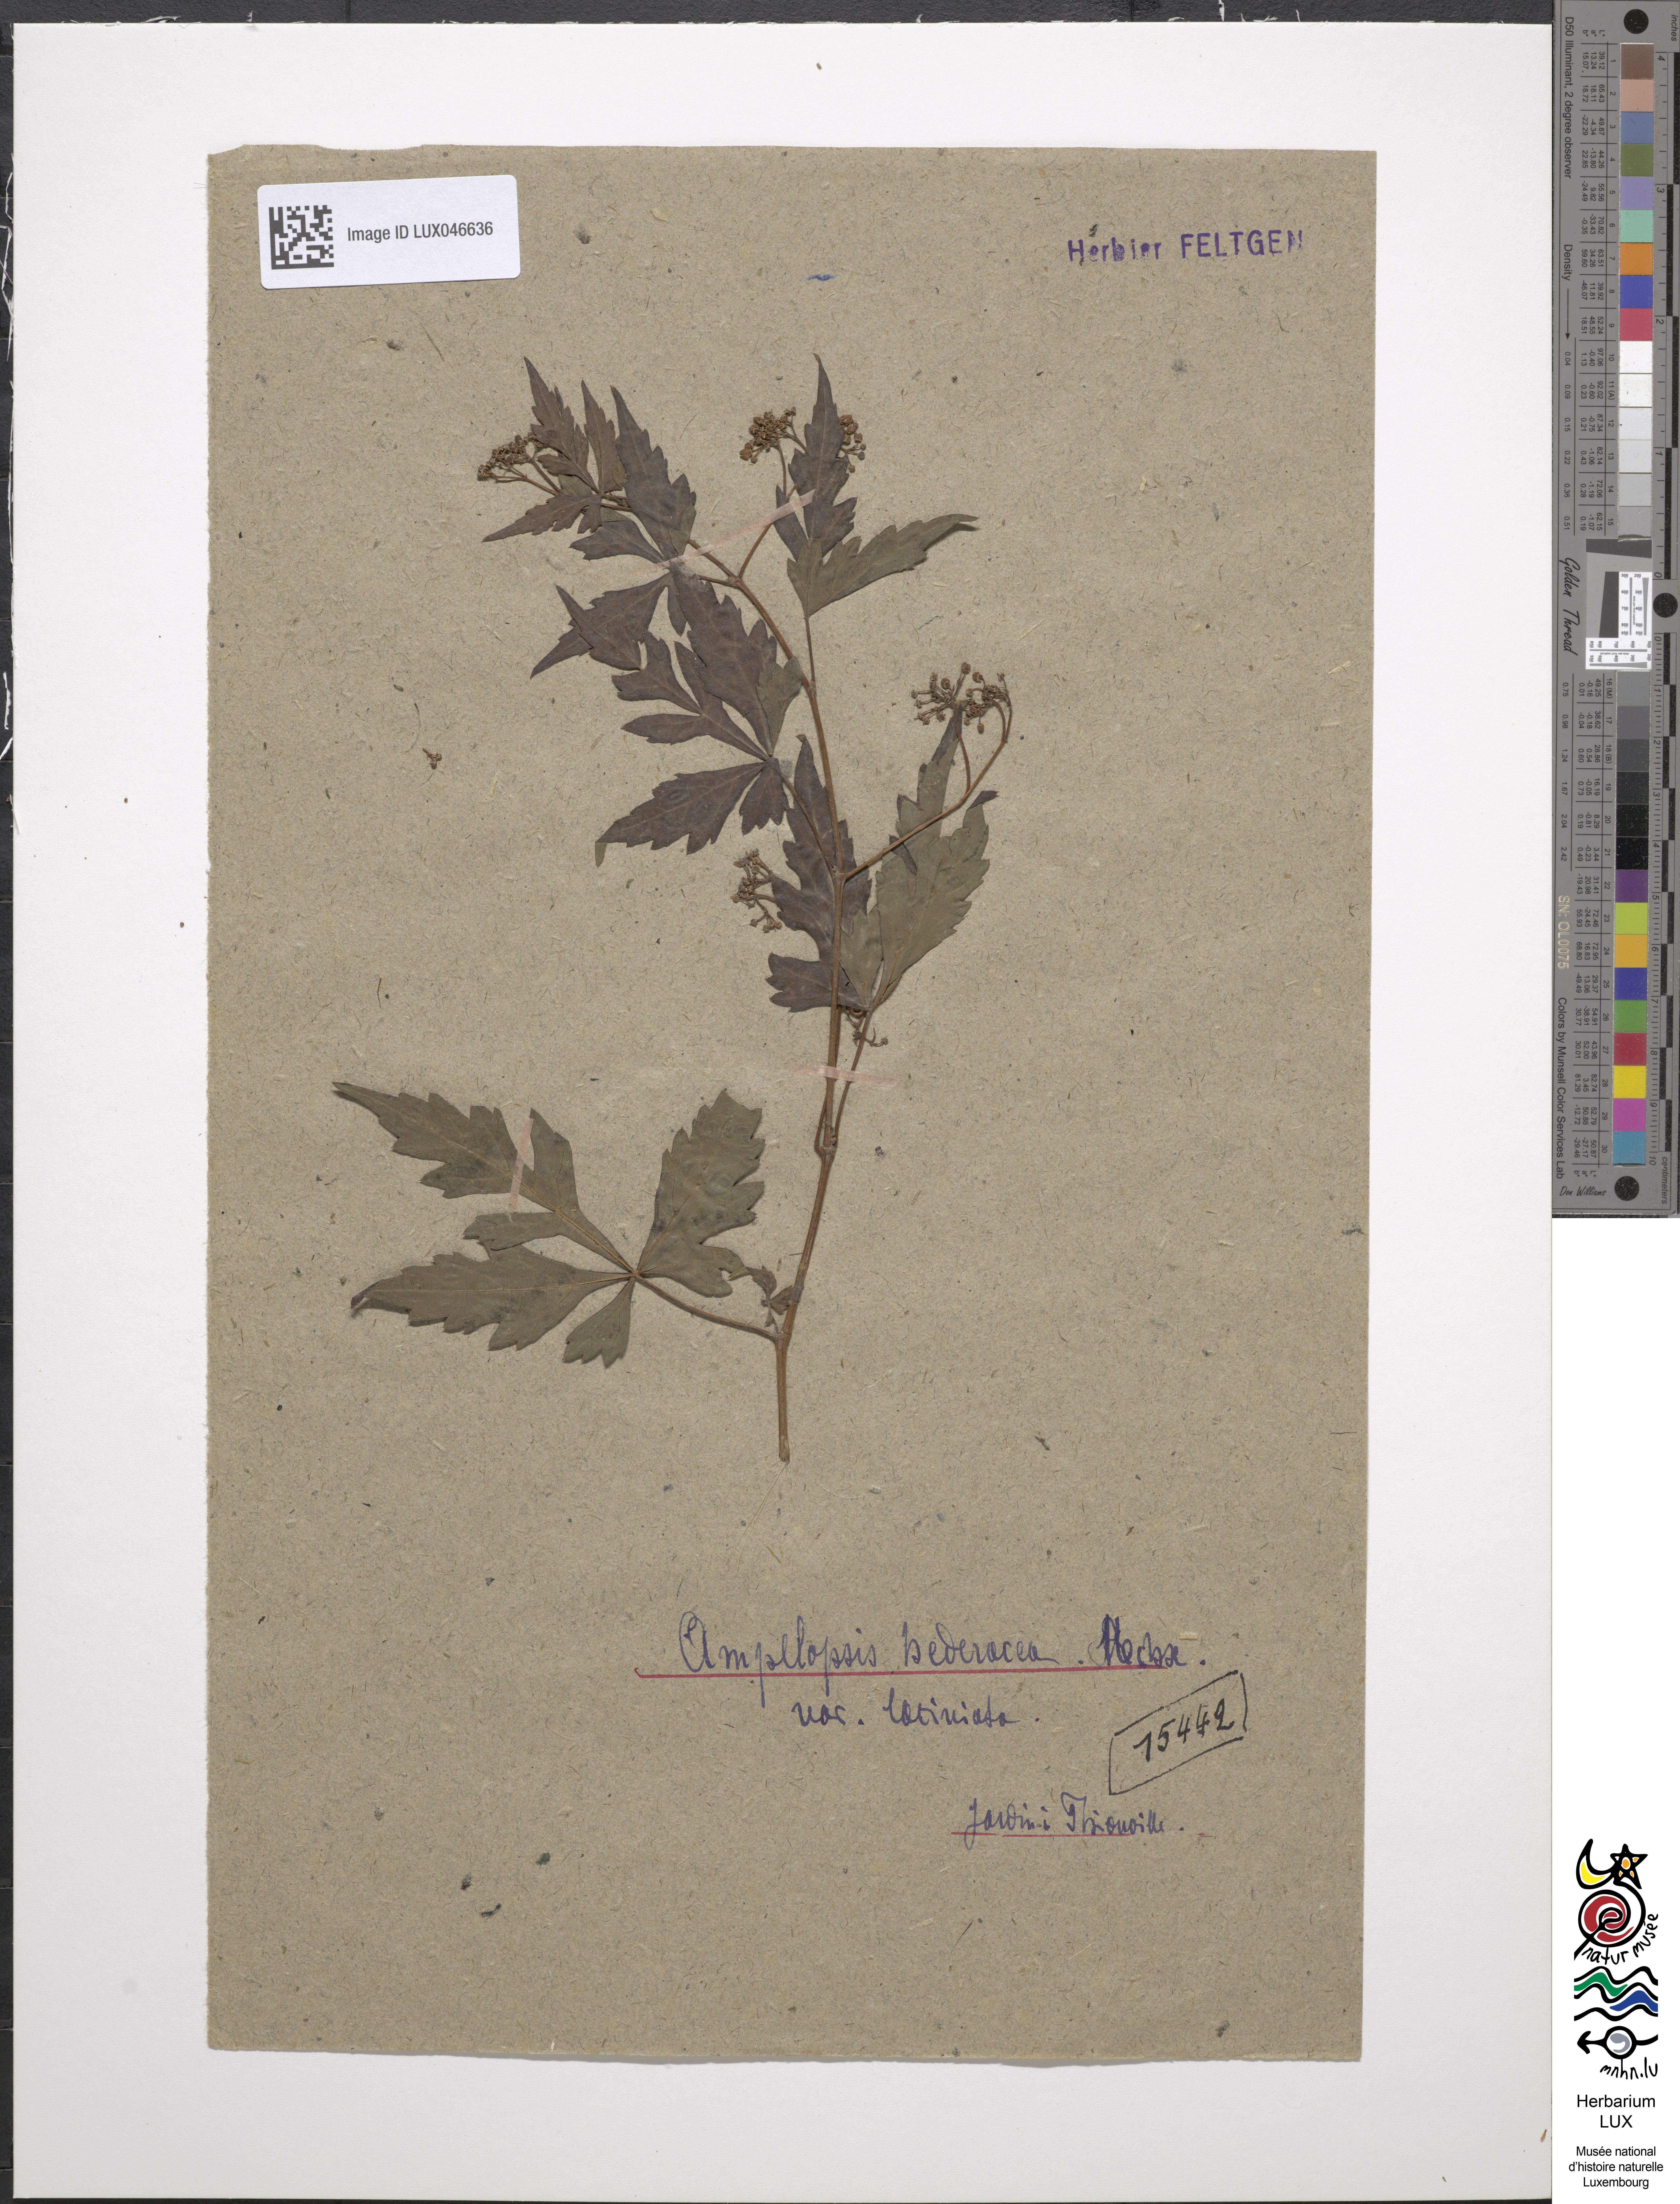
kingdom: Plantae
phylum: Tracheophyta
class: Magnoliopsida
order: Vitales
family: Vitaceae
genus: Parthenocissus
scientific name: Parthenocissus quinquefolia
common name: Virginia-creeper
